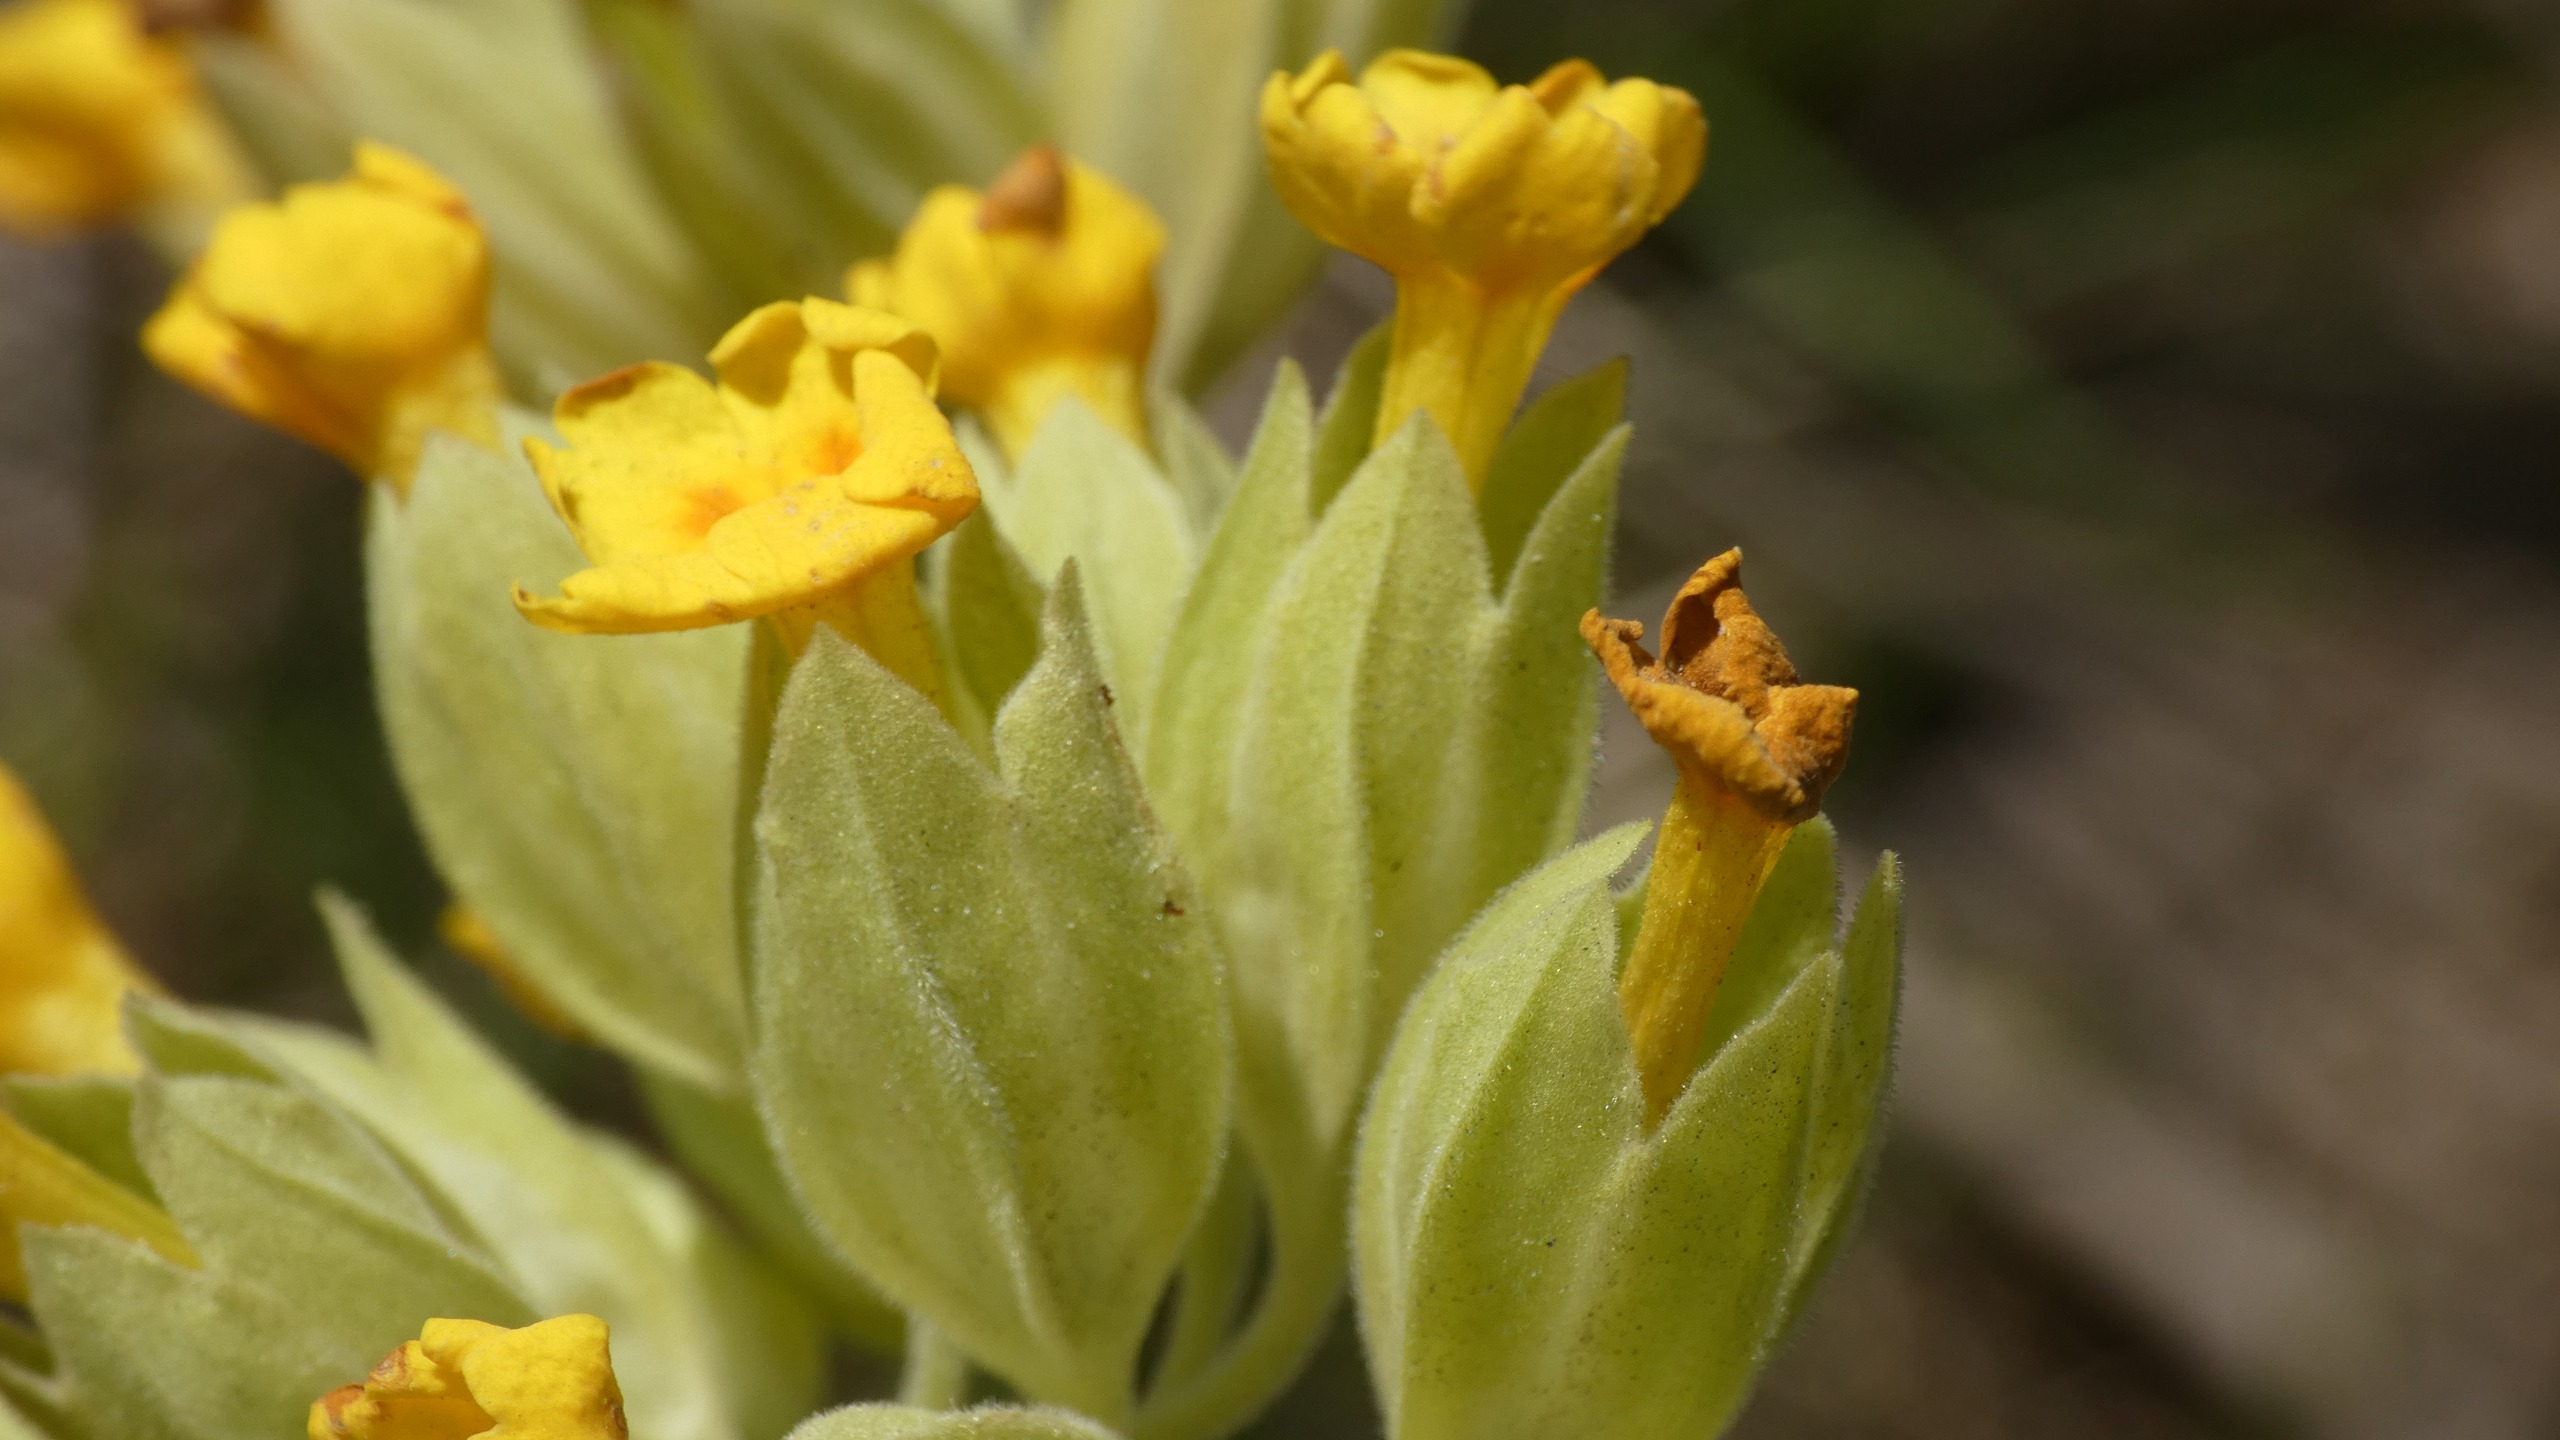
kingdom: Plantae
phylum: Tracheophyta
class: Magnoliopsida
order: Ericales
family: Primulaceae
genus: Primula
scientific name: Primula veris
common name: Hulkravet kodriver
